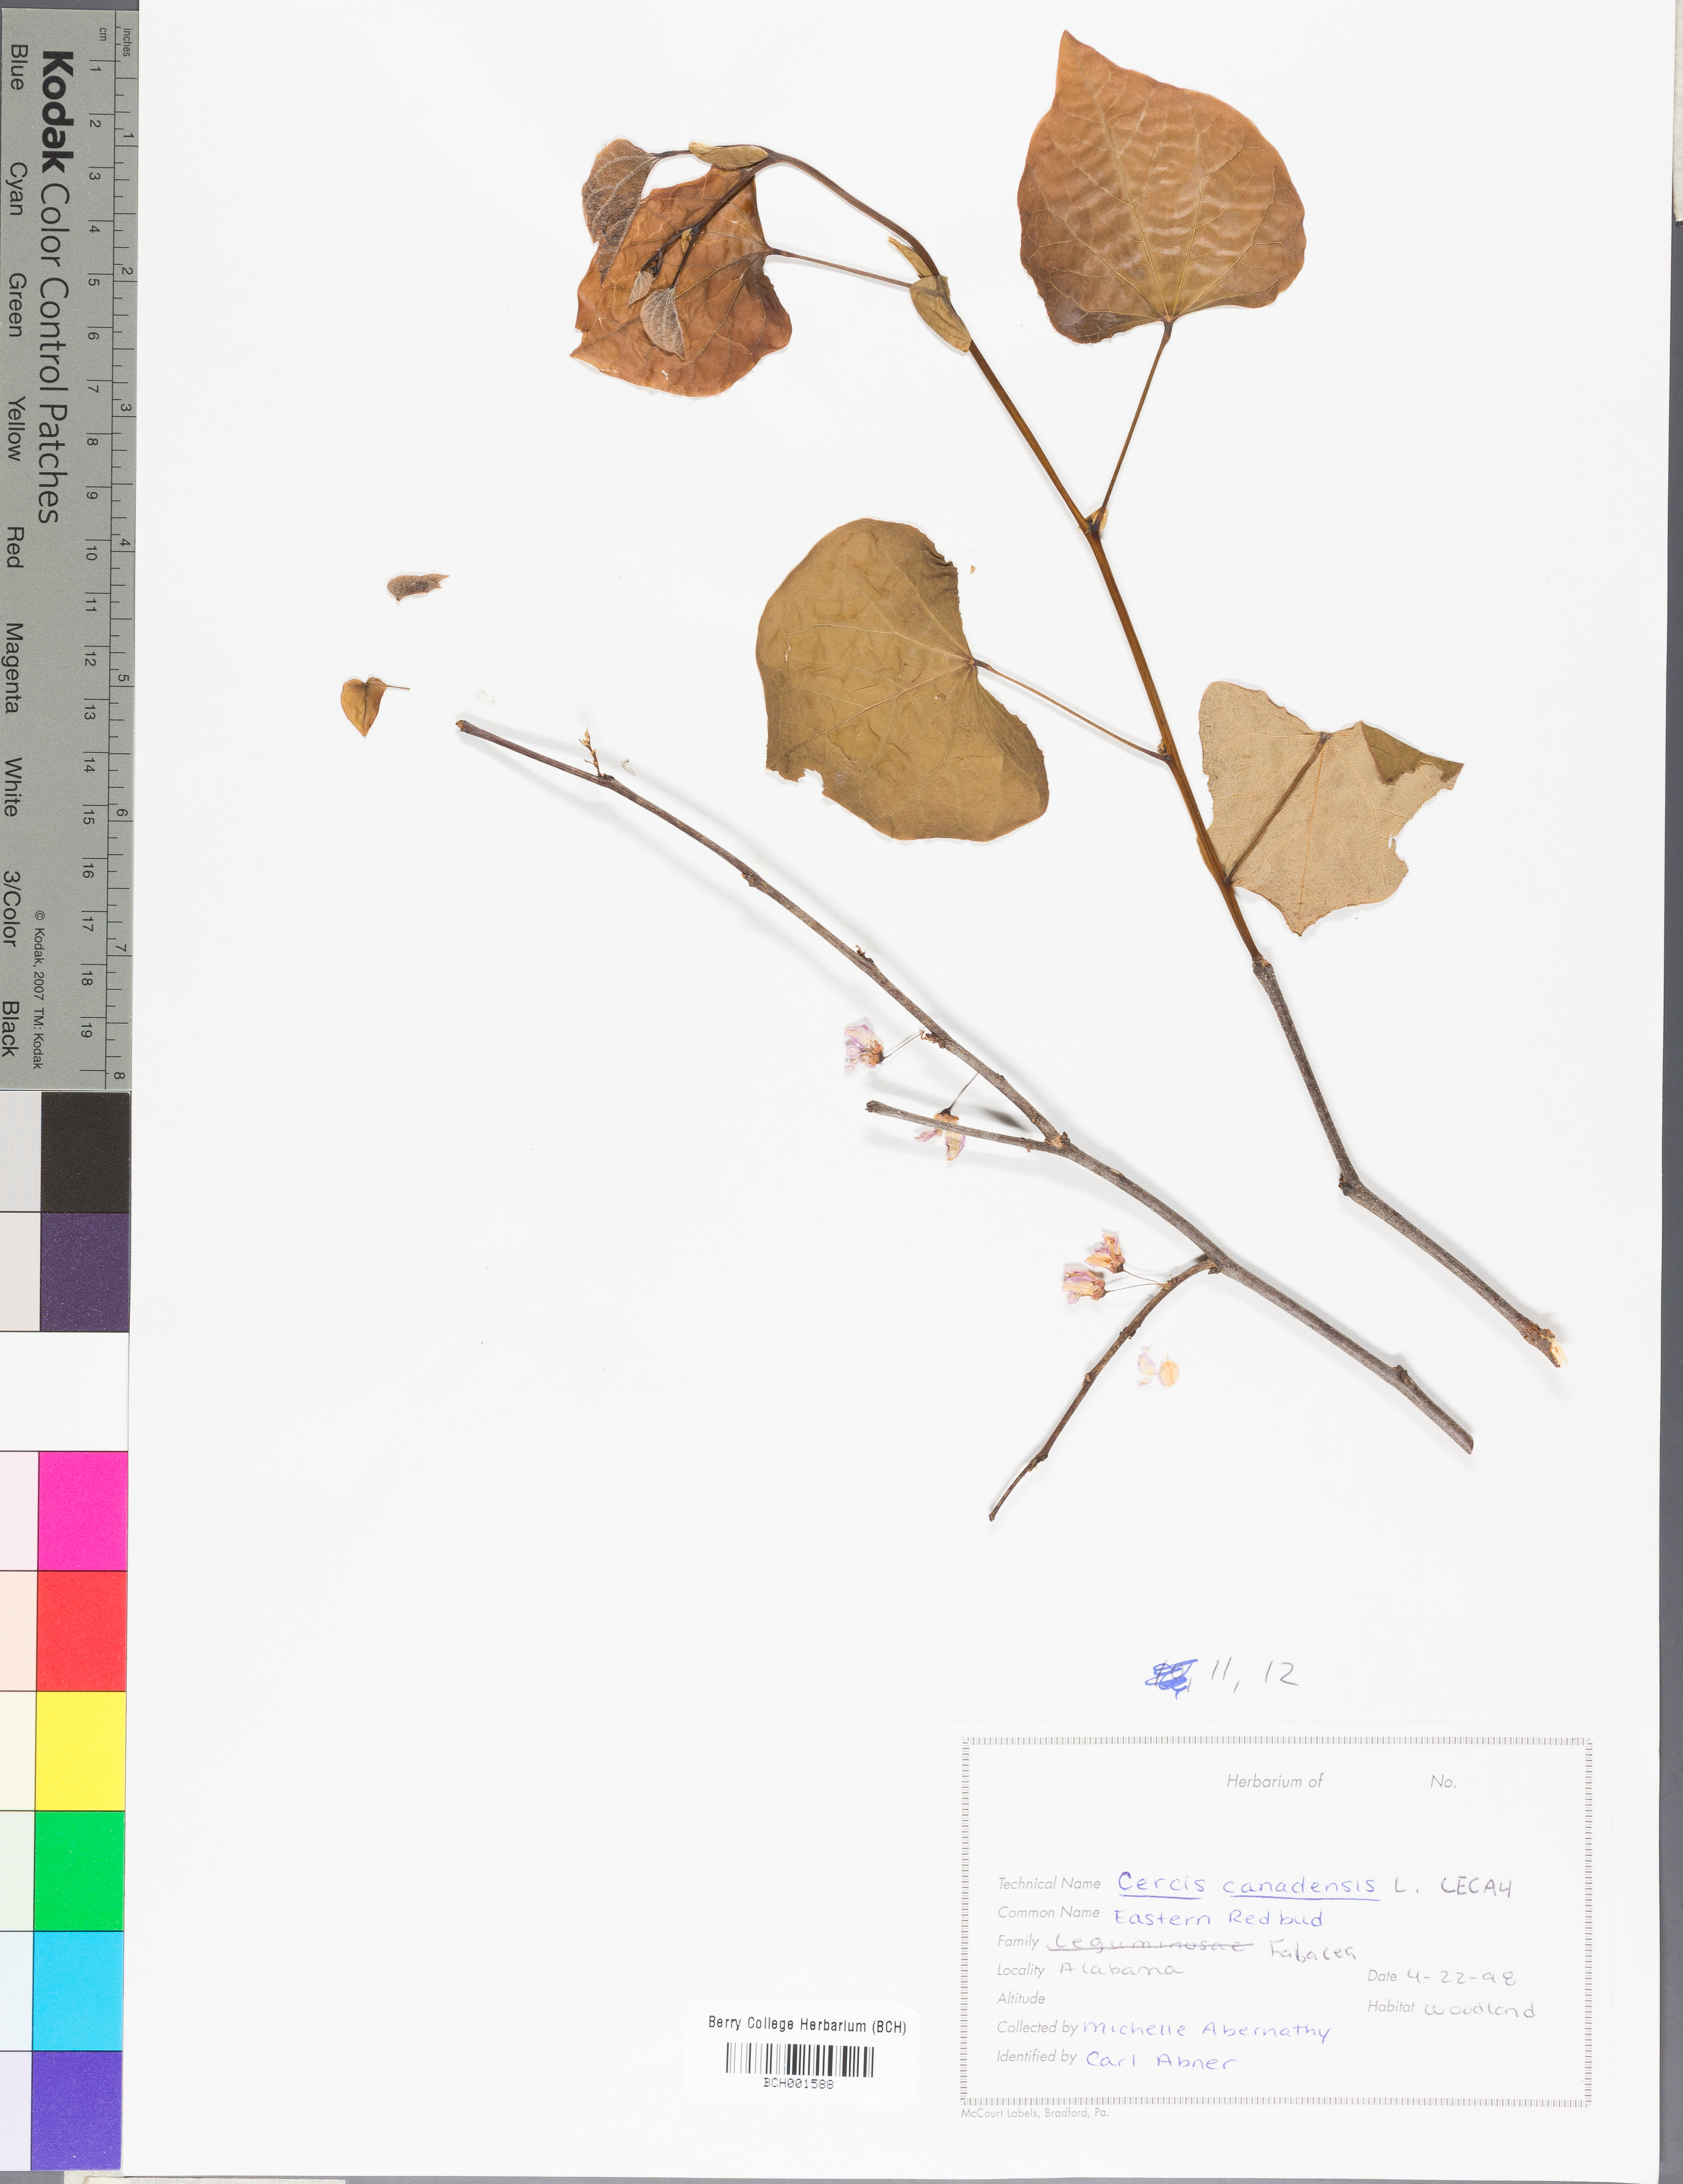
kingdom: Plantae
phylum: Tracheophyta
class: Magnoliopsida
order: Fabales
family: Fabaceae
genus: Cercis
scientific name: Cercis canadensis
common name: Eastern redbud
